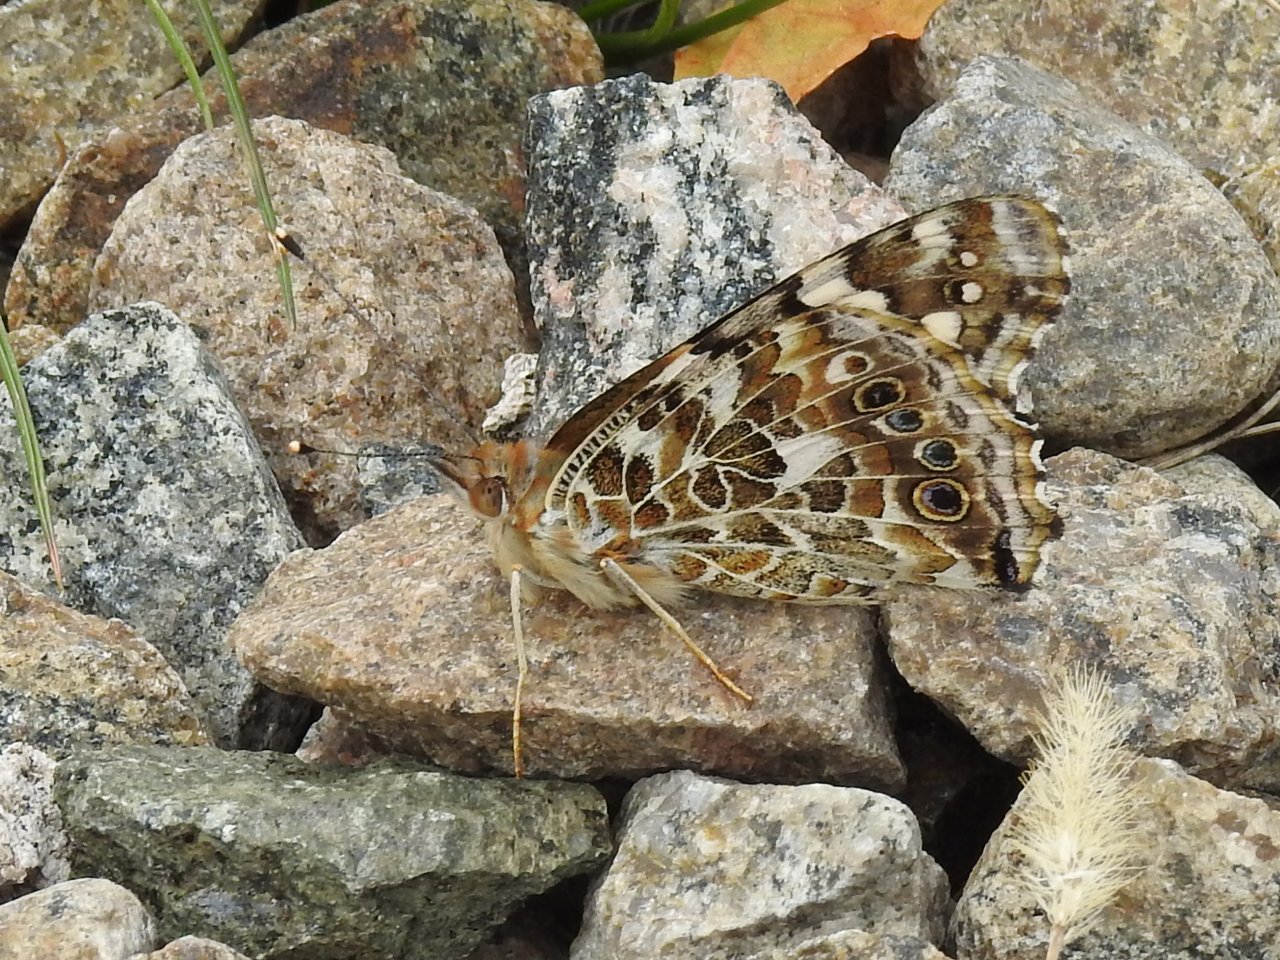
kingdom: Animalia
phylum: Arthropoda
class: Insecta
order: Lepidoptera
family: Nymphalidae
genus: Vanessa
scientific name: Vanessa cardui
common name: Painted Lady
